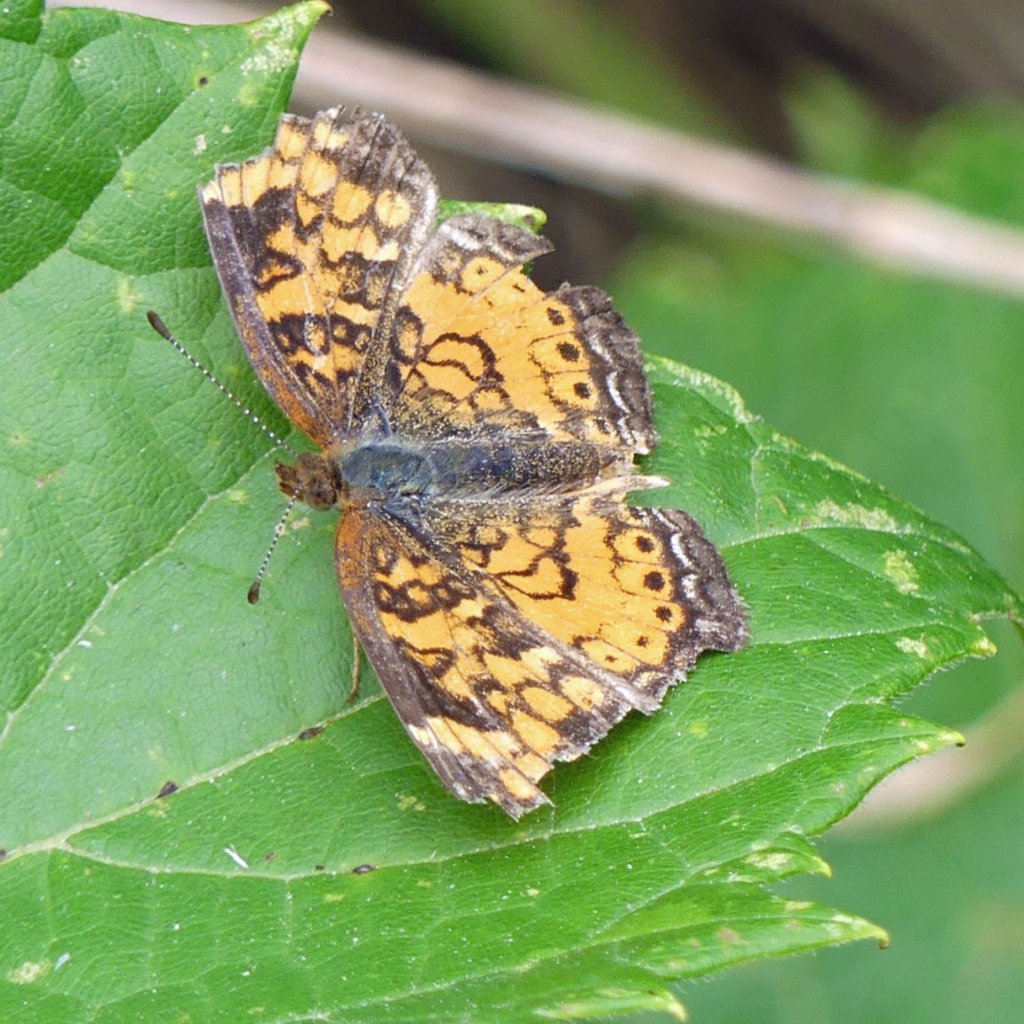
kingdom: Animalia
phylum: Arthropoda
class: Insecta
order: Lepidoptera
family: Nymphalidae
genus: Phyciodes
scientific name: Phyciodes tharos
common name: Pearl Crescent
